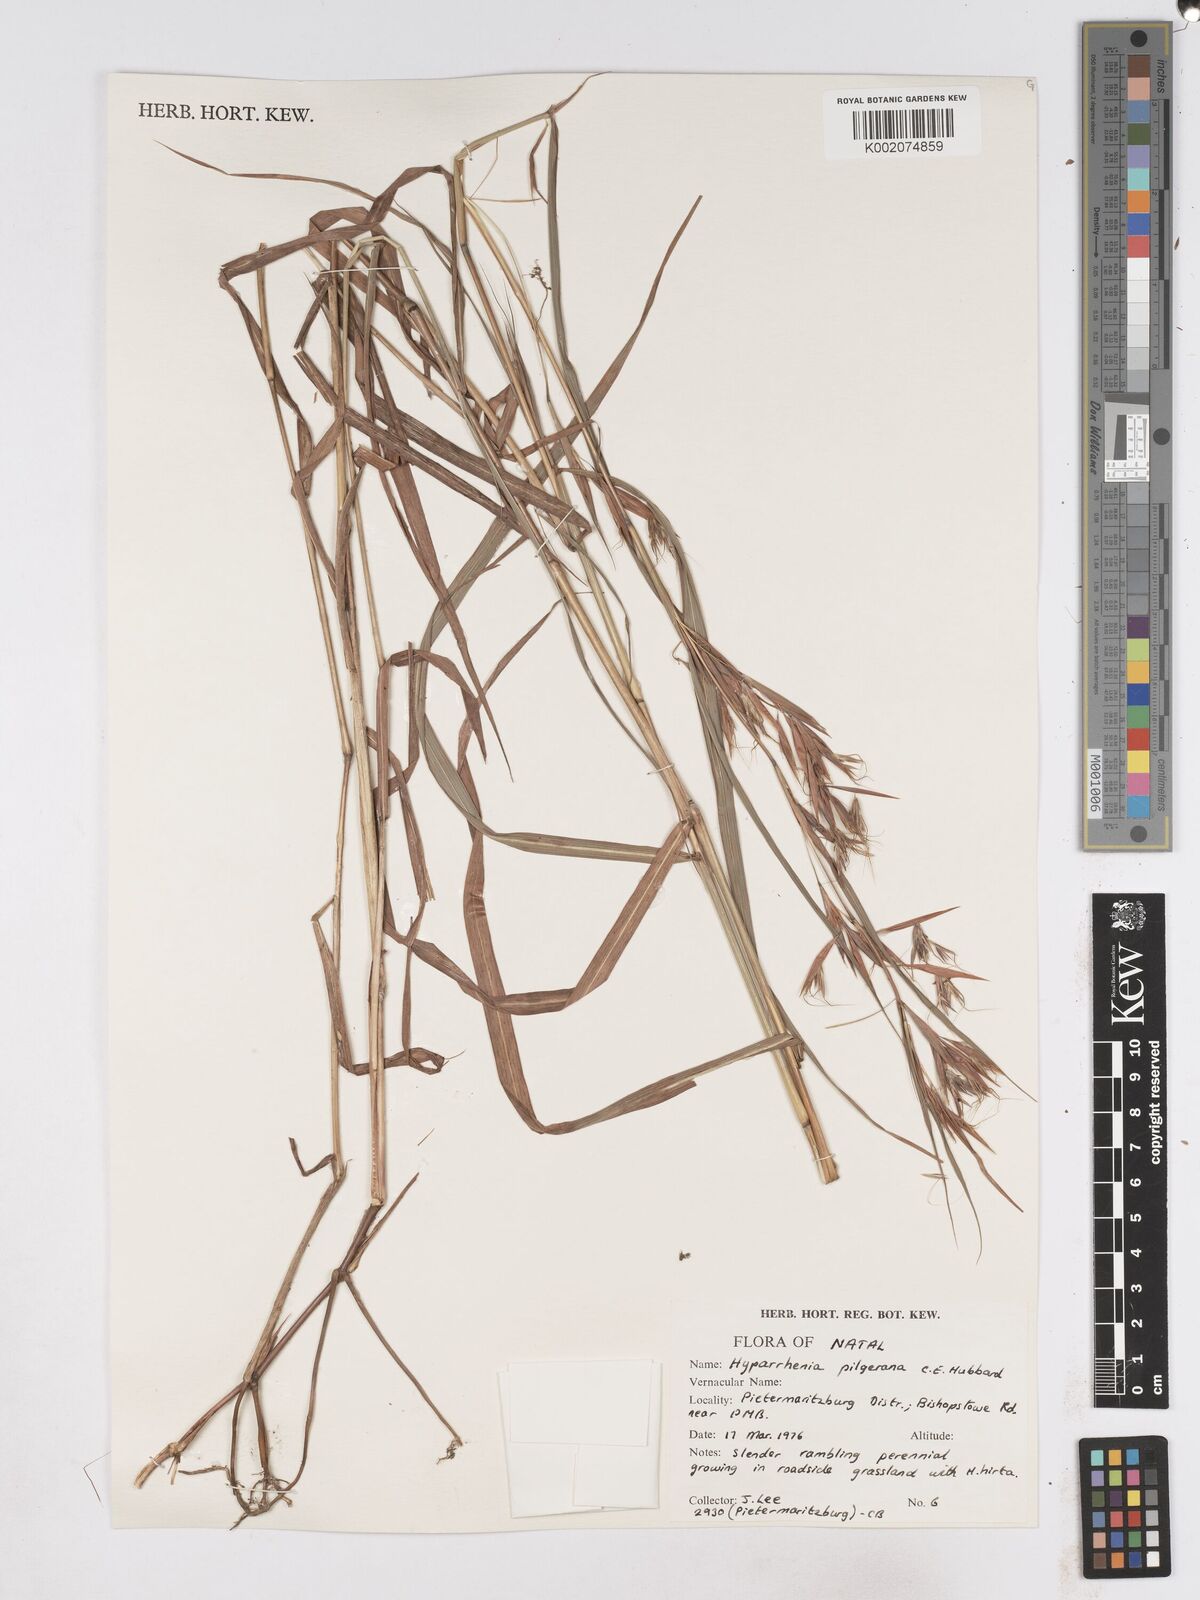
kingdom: Plantae
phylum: Tracheophyta
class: Liliopsida
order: Poales
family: Poaceae
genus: Hyparrhenia
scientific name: Hyparrhenia pilgeriana
